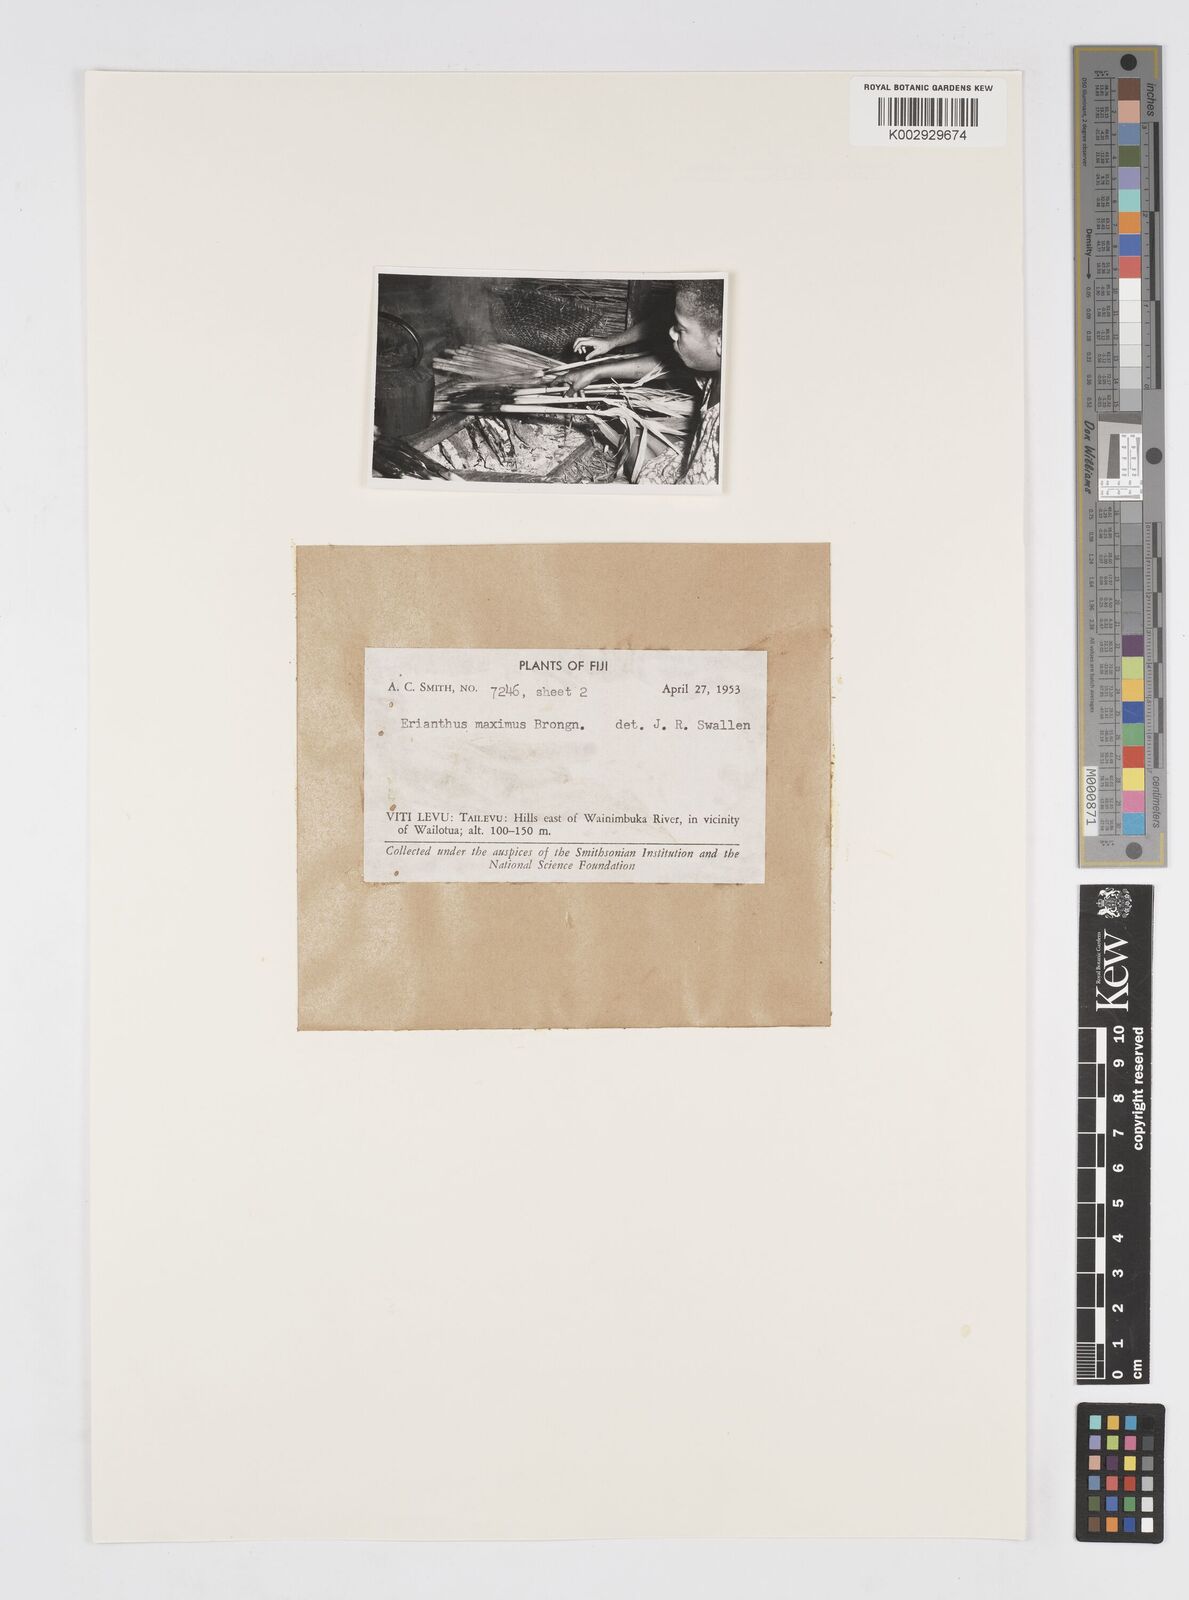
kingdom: Plantae
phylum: Tracheophyta
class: Liliopsida
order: Poales
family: Poaceae
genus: Saccharum
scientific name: Saccharum maximum
